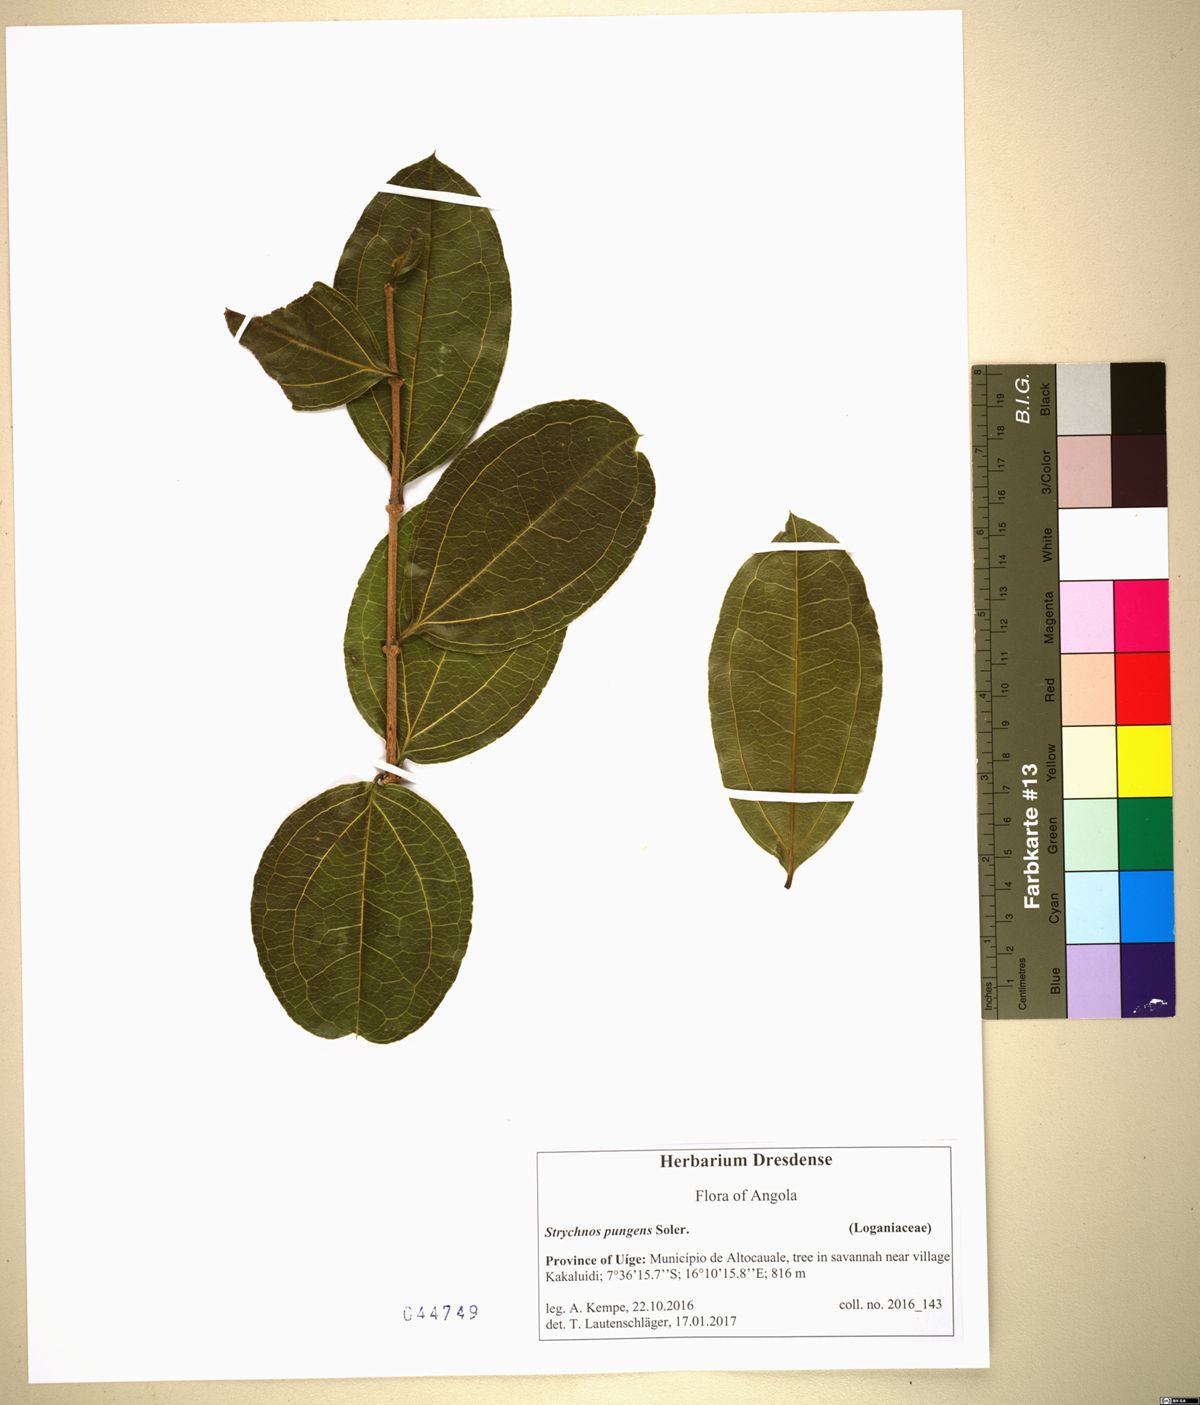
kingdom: Plantae
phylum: Tracheophyta
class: Magnoliopsida
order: Gentianales
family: Loganiaceae
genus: Strychnos
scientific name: Strychnos pungens
